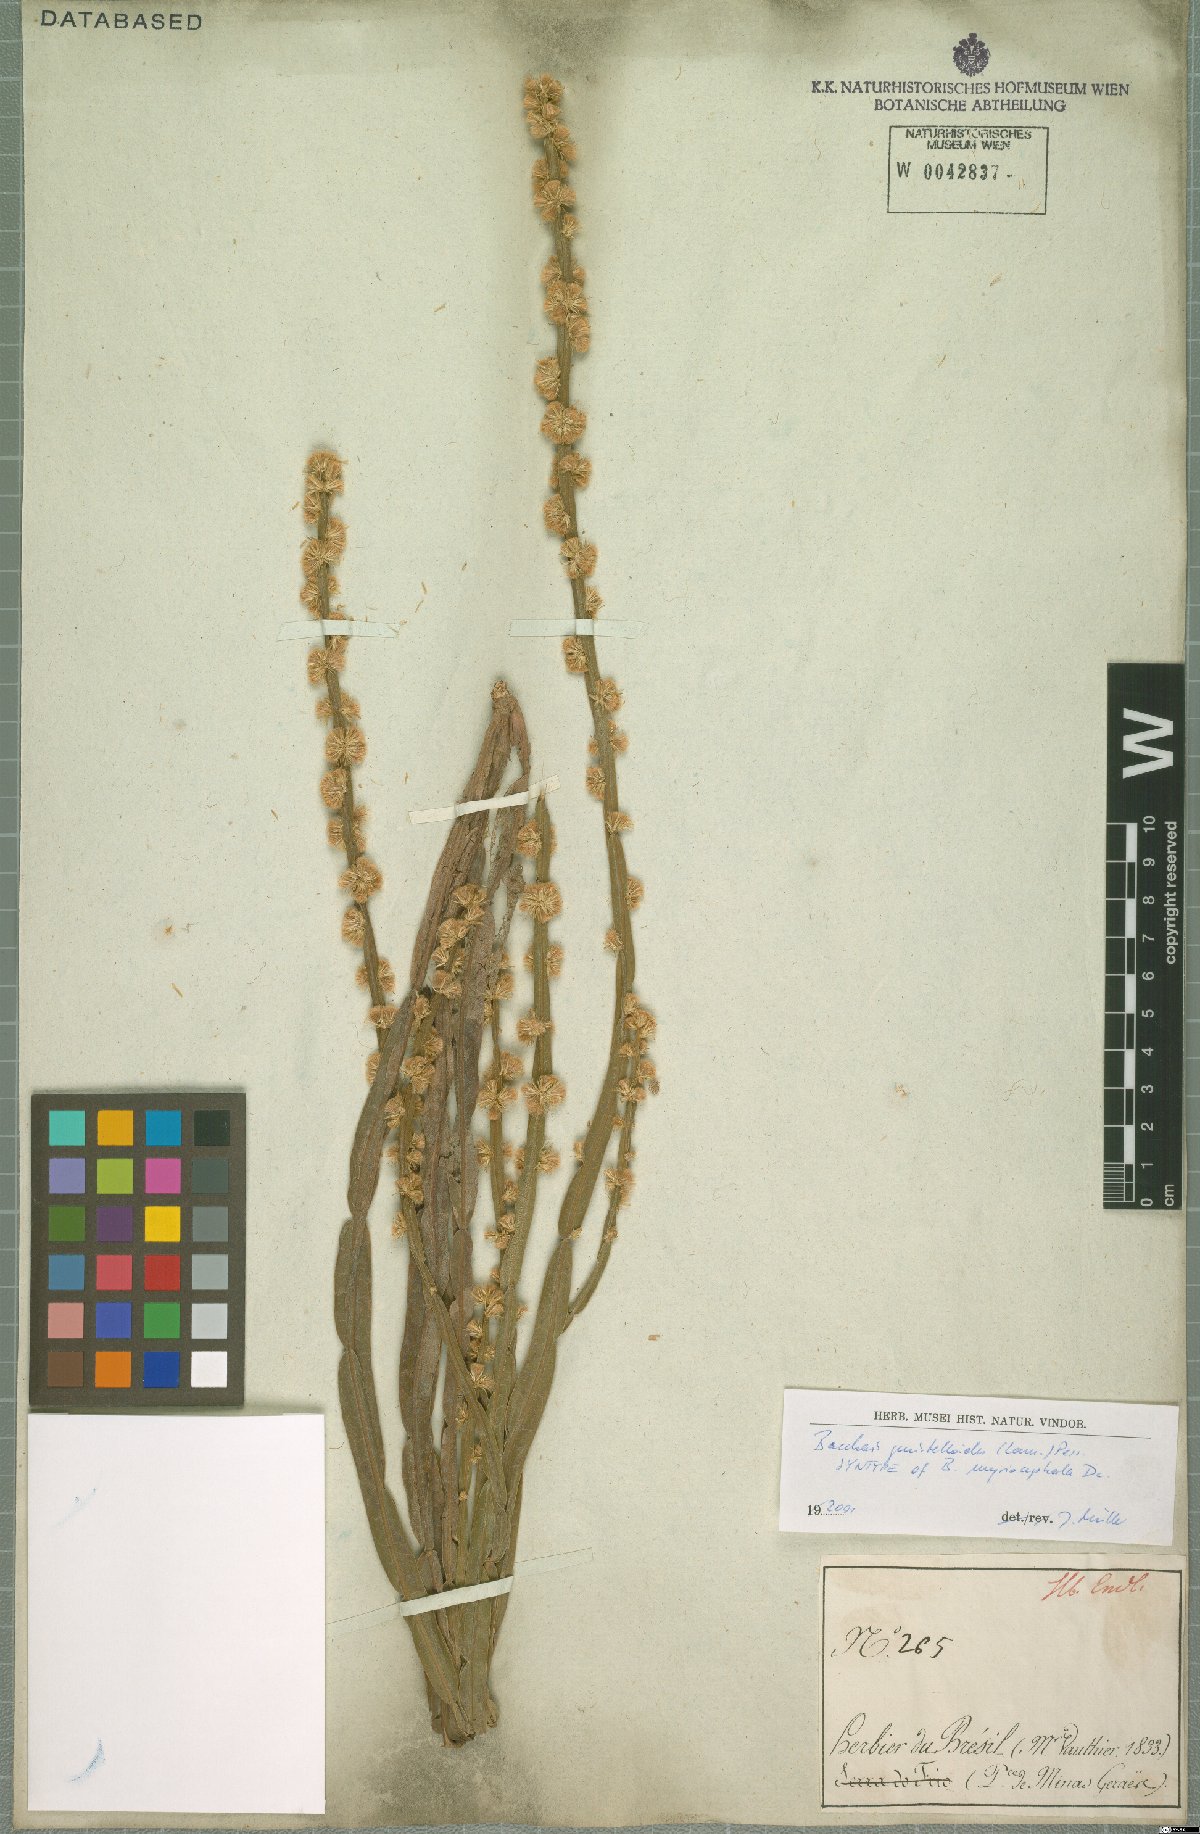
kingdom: Plantae
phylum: Tracheophyta
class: Magnoliopsida
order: Asterales
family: Asteraceae
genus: Baccharis
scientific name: Baccharis genistelloides
